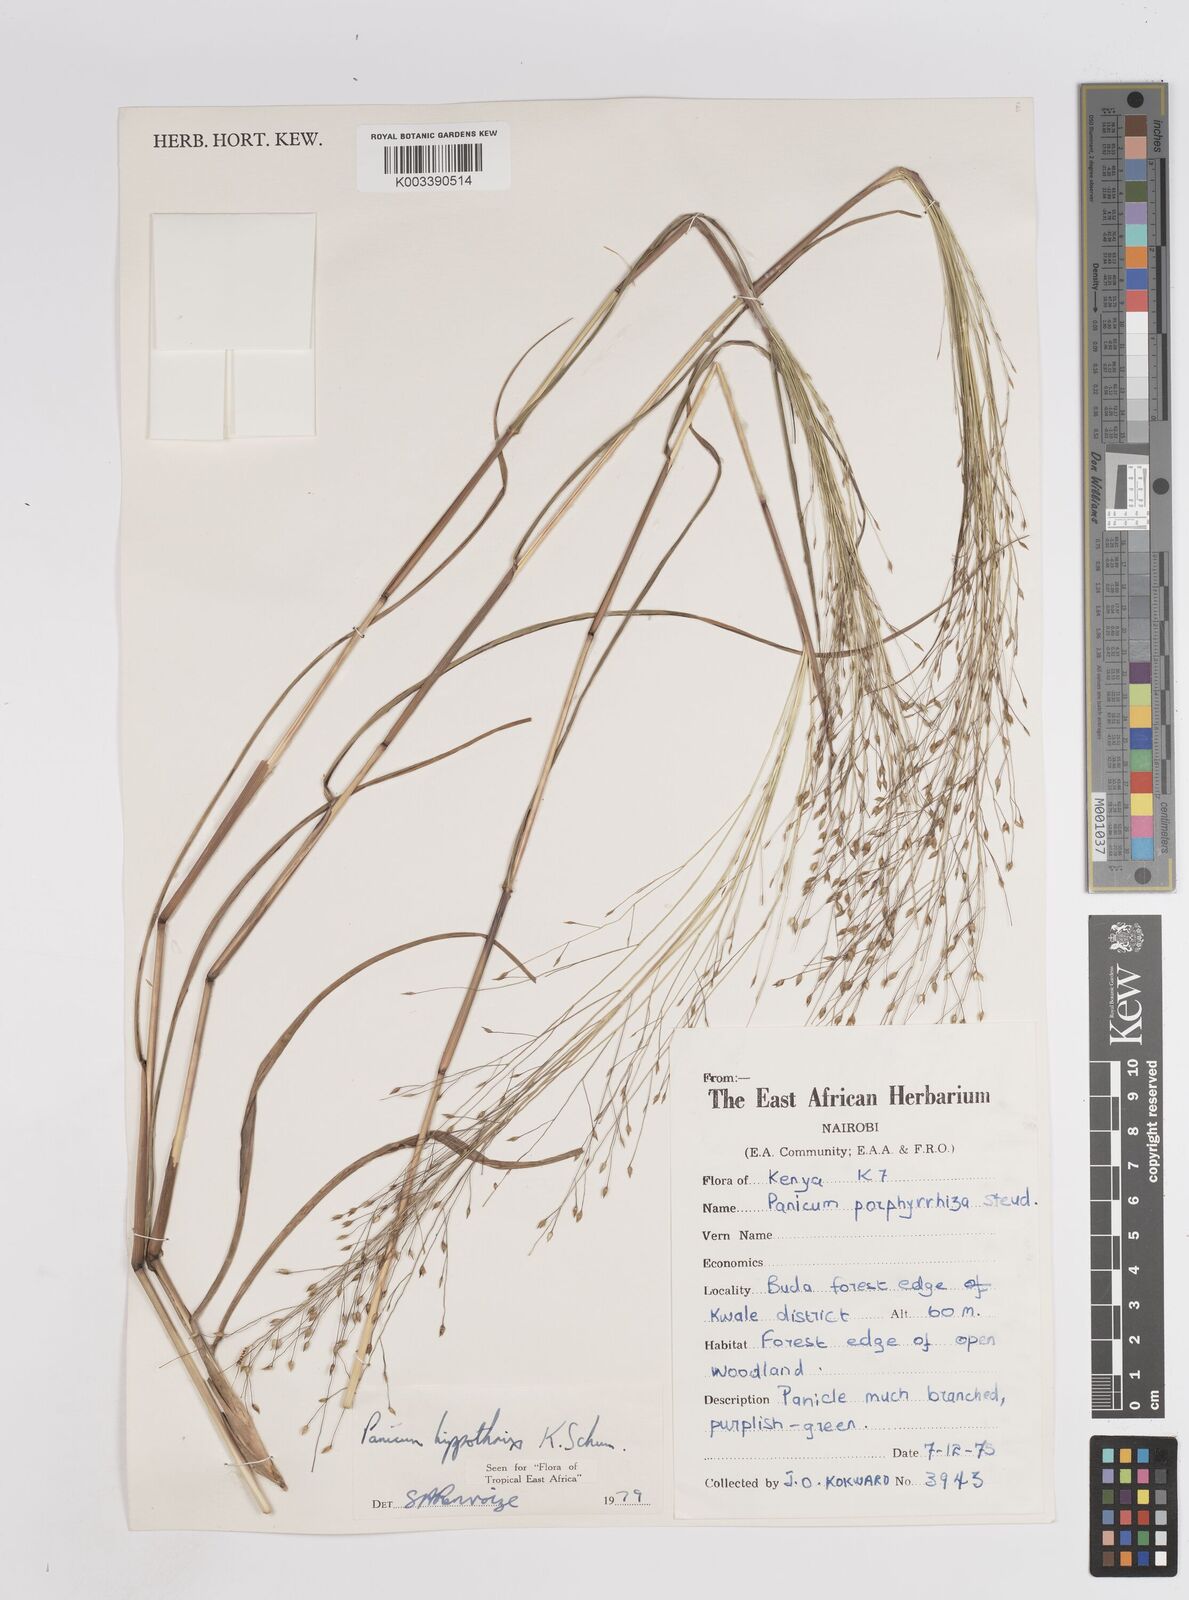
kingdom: Plantae
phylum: Tracheophyta
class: Liliopsida
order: Poales
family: Poaceae
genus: Panicum
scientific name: Panicum hippothrix
